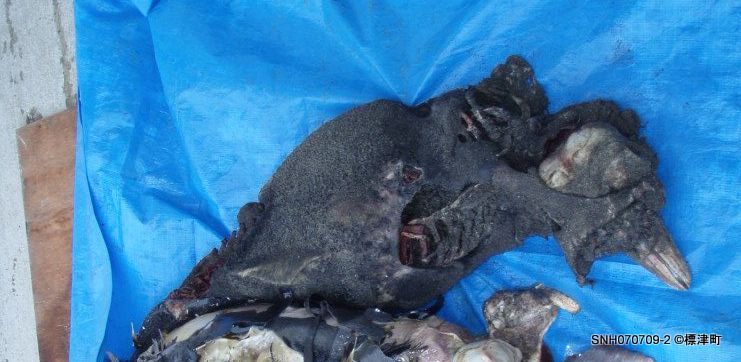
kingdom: Animalia
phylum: Chordata
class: Mammalia
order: Cetacea
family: Phocoenidae
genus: Phocoena
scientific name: Phocoena phocoena
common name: Harbour porpoise
